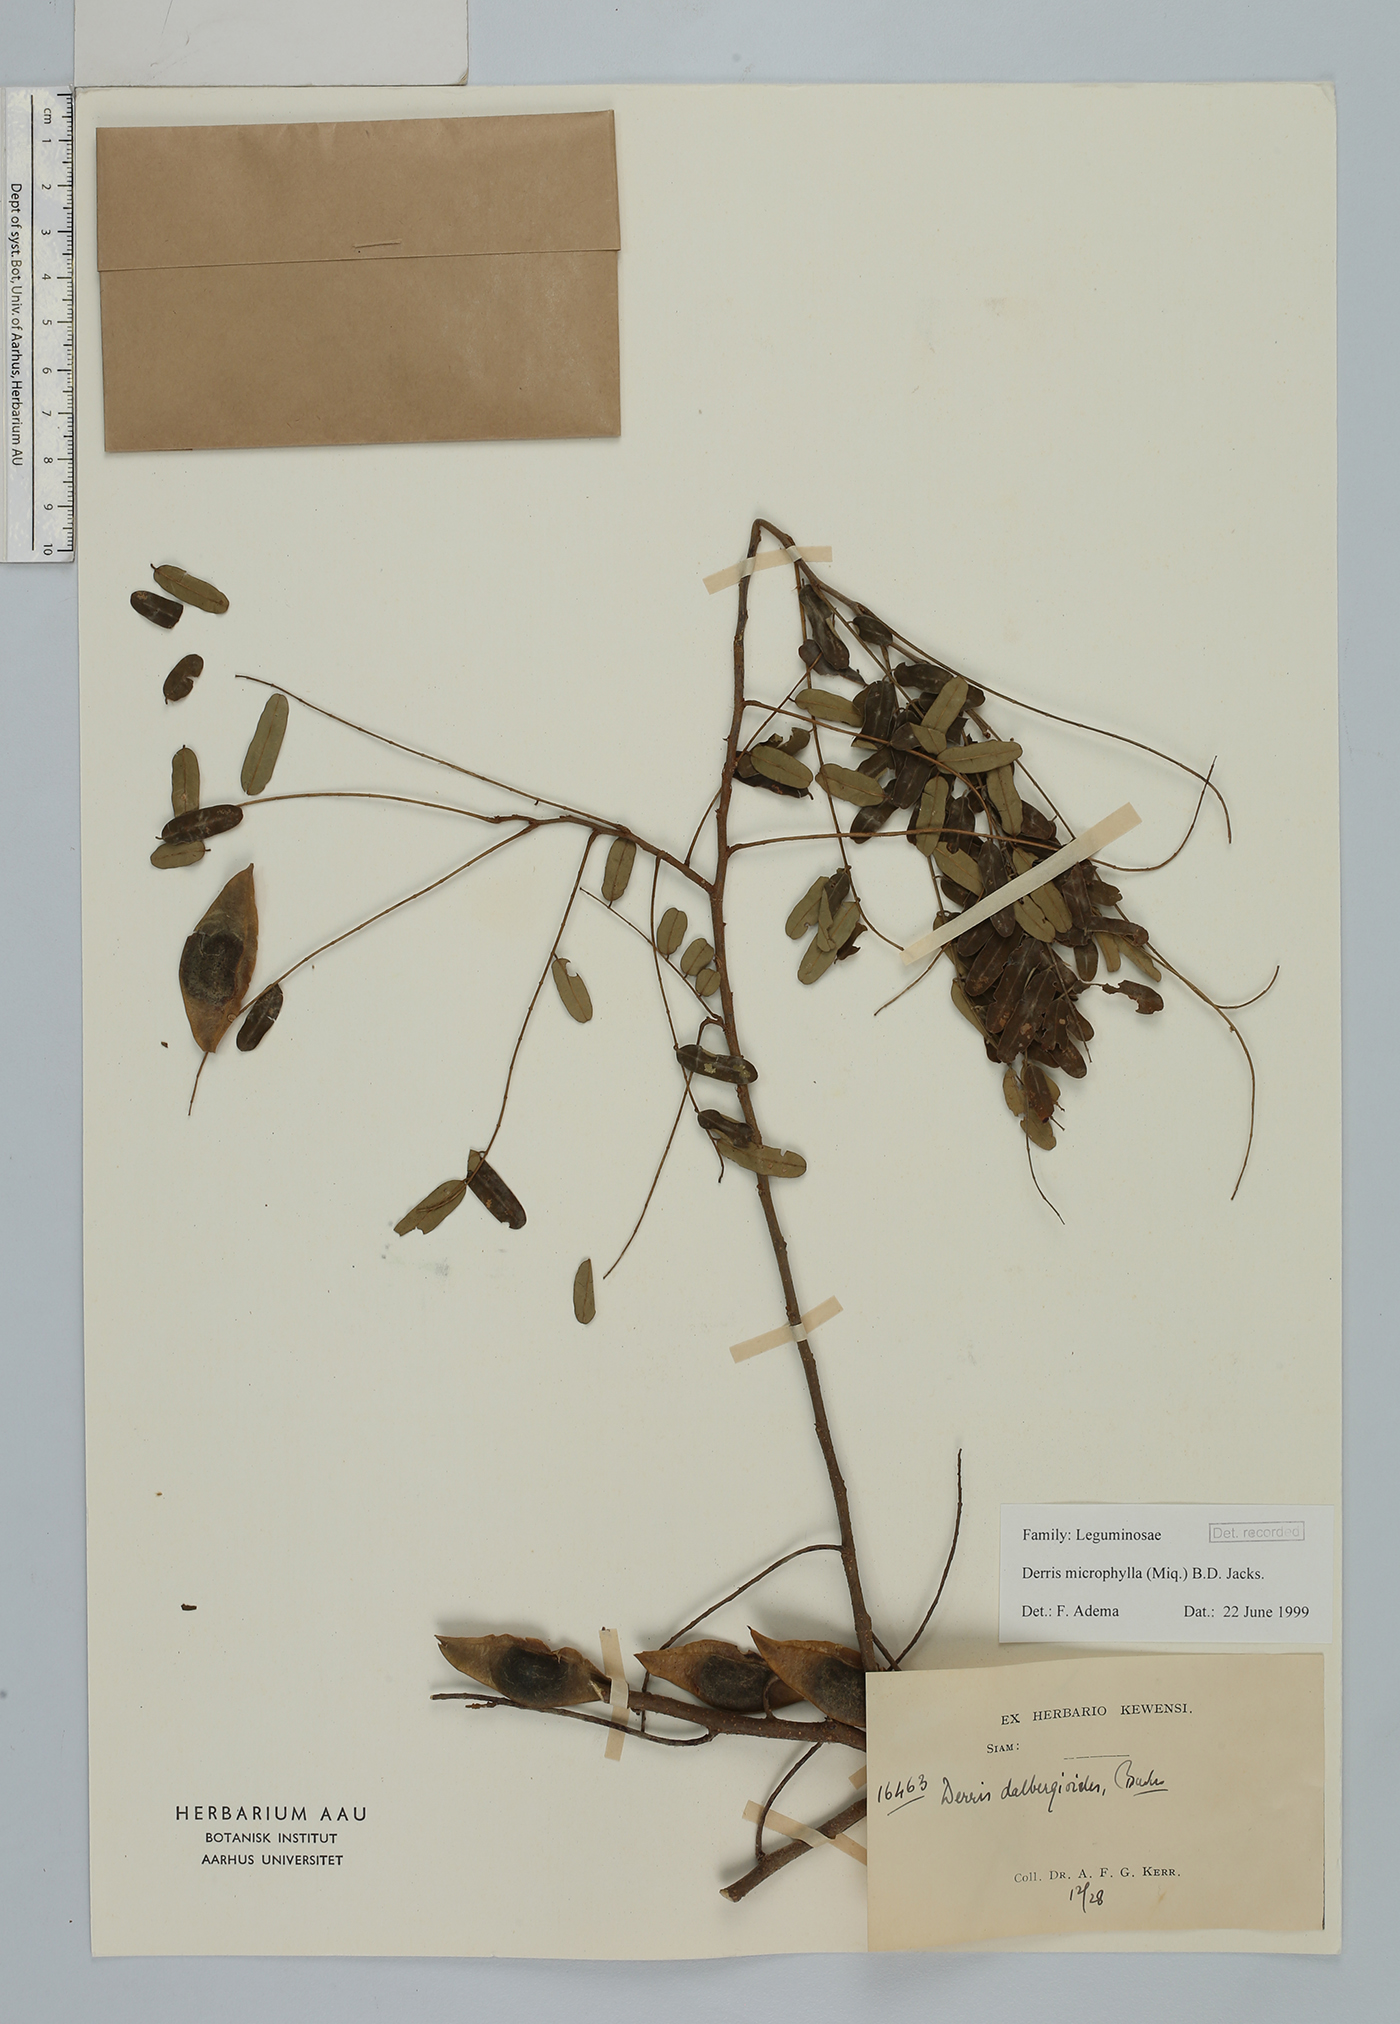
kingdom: Plantae
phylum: Tracheophyta
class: Magnoliopsida
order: Fabales
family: Fabaceae
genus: Brachypterum
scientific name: Brachypterum microphyllum
